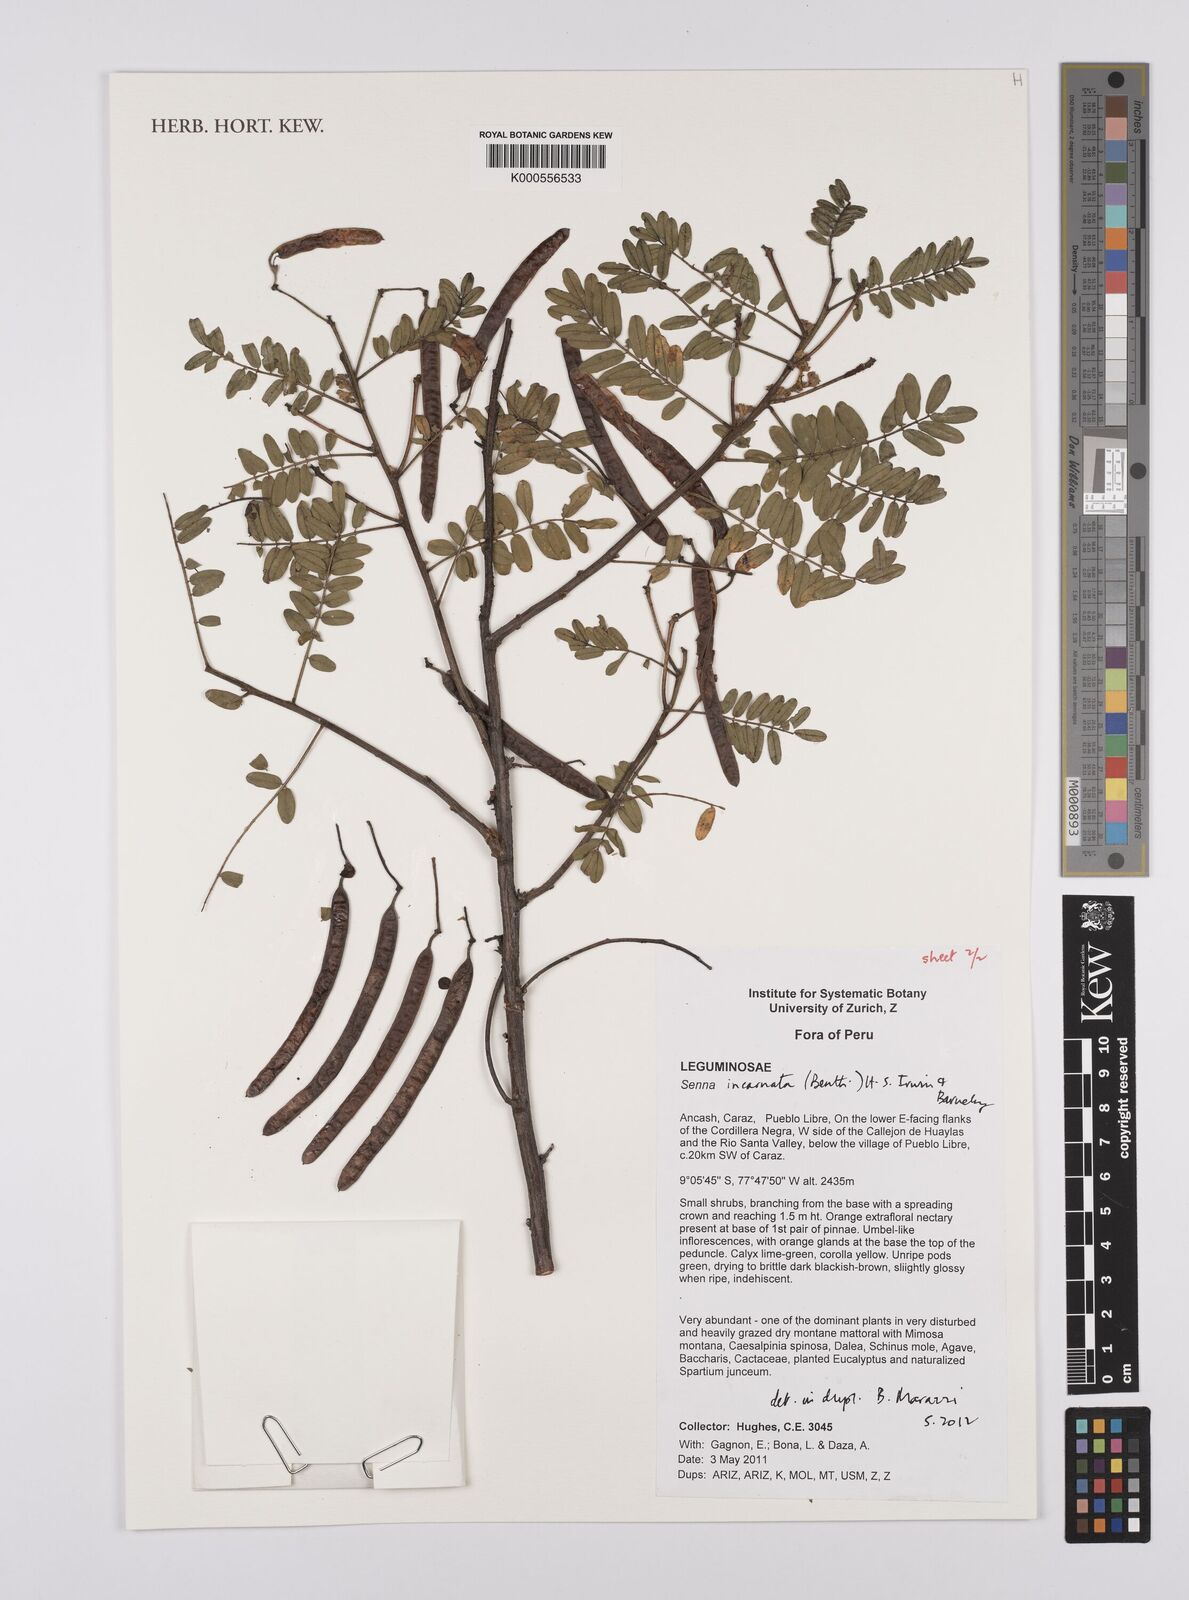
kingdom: Plantae
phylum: Tracheophyta
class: Magnoliopsida
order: Fabales
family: Fabaceae
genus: Senna
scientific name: Senna incarnata
